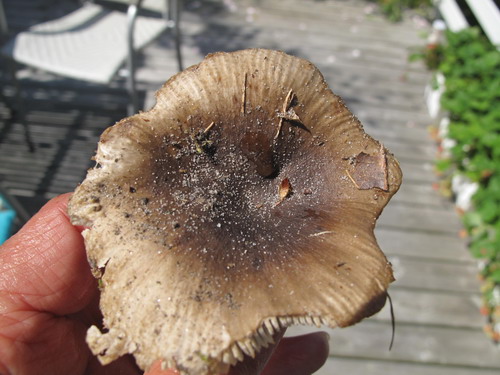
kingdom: Fungi
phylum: Basidiomycota
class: Agaricomycetes
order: Russulales
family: Russulaceae
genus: Russula
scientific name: Russula amoenolens
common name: skarp kam-skørhat
